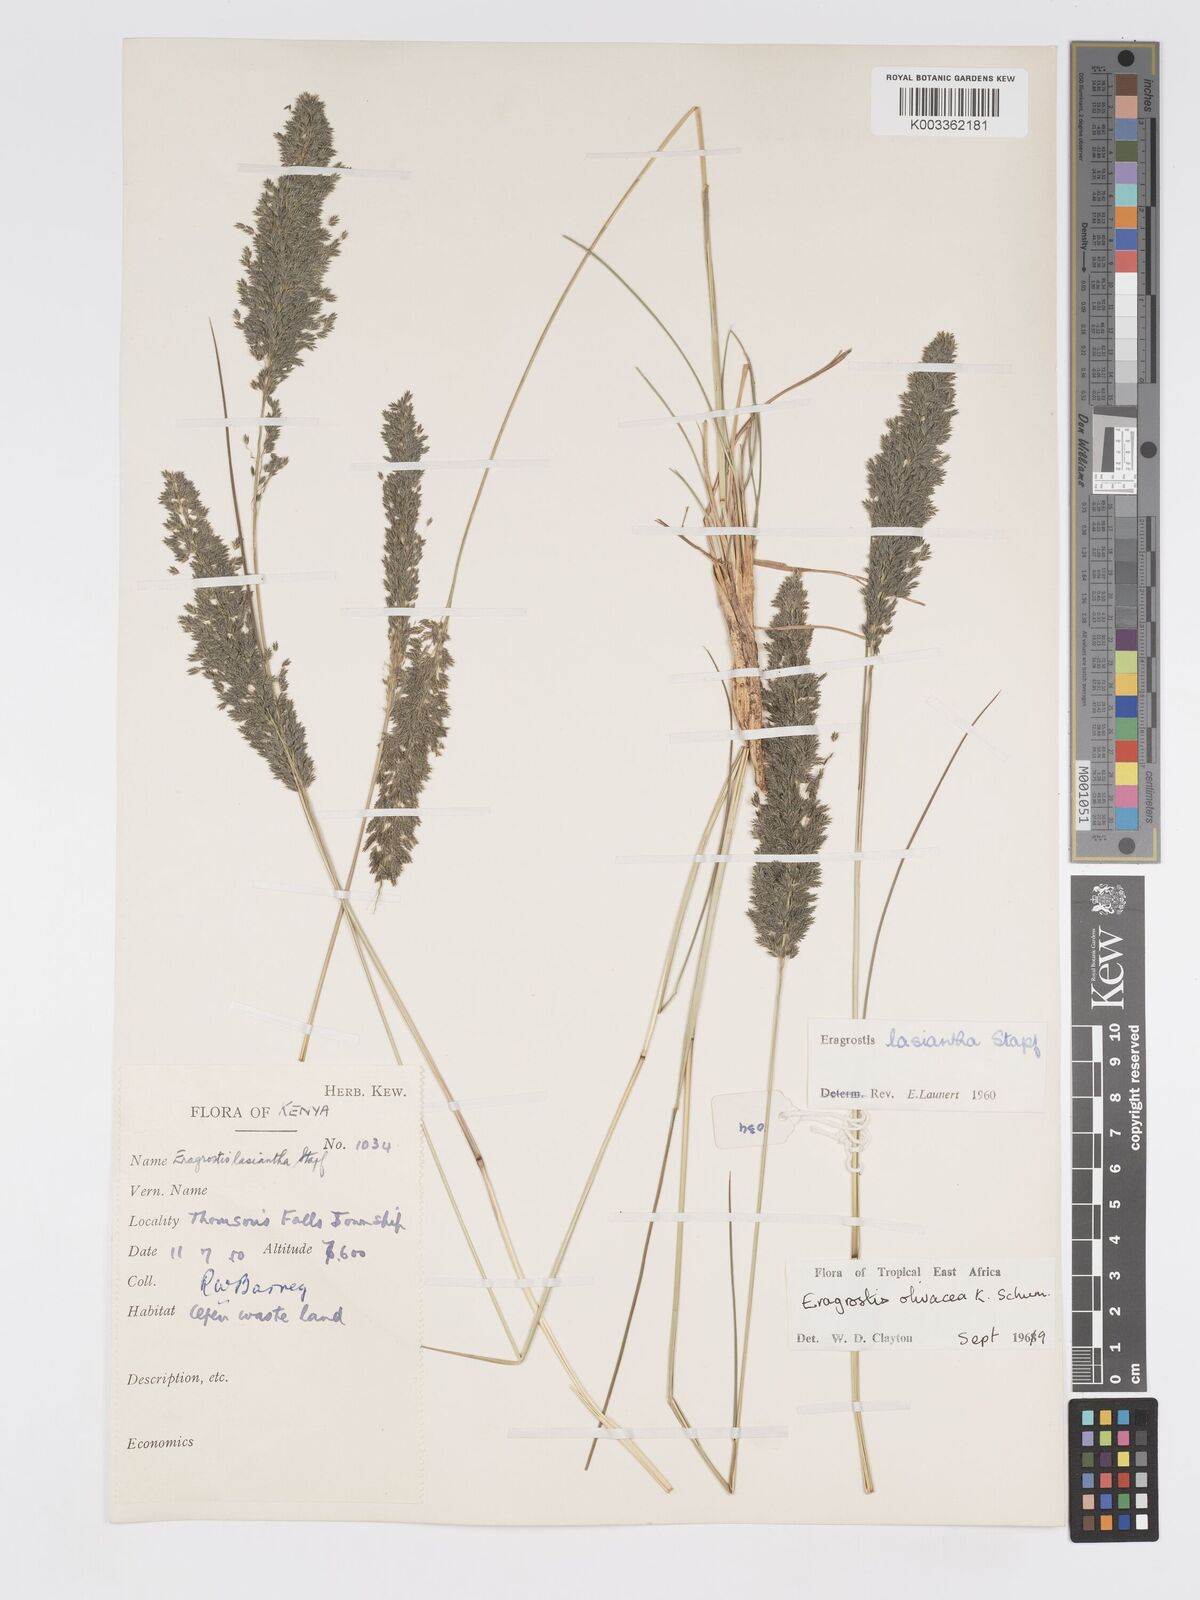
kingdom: Plantae
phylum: Tracheophyta
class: Liliopsida
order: Poales
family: Poaceae
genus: Eragrostis
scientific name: Eragrostis olivacea
